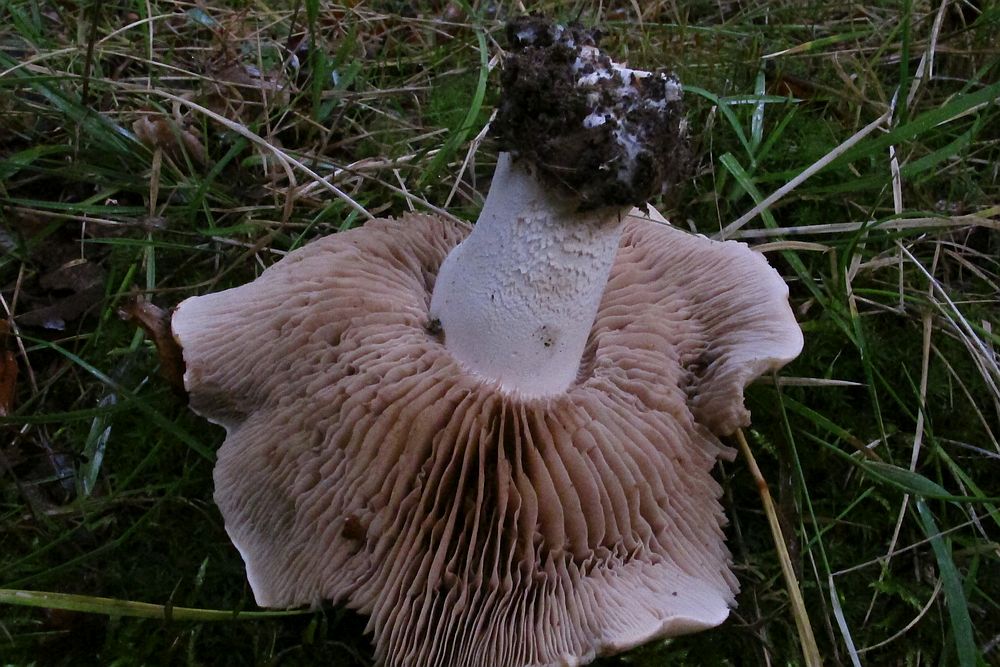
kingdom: Fungi
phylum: Basidiomycota
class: Agaricomycetes
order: Agaricales
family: Hymenogastraceae
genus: Hebeloma
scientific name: Hebeloma sinapizans
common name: ræddike-tåreblad
